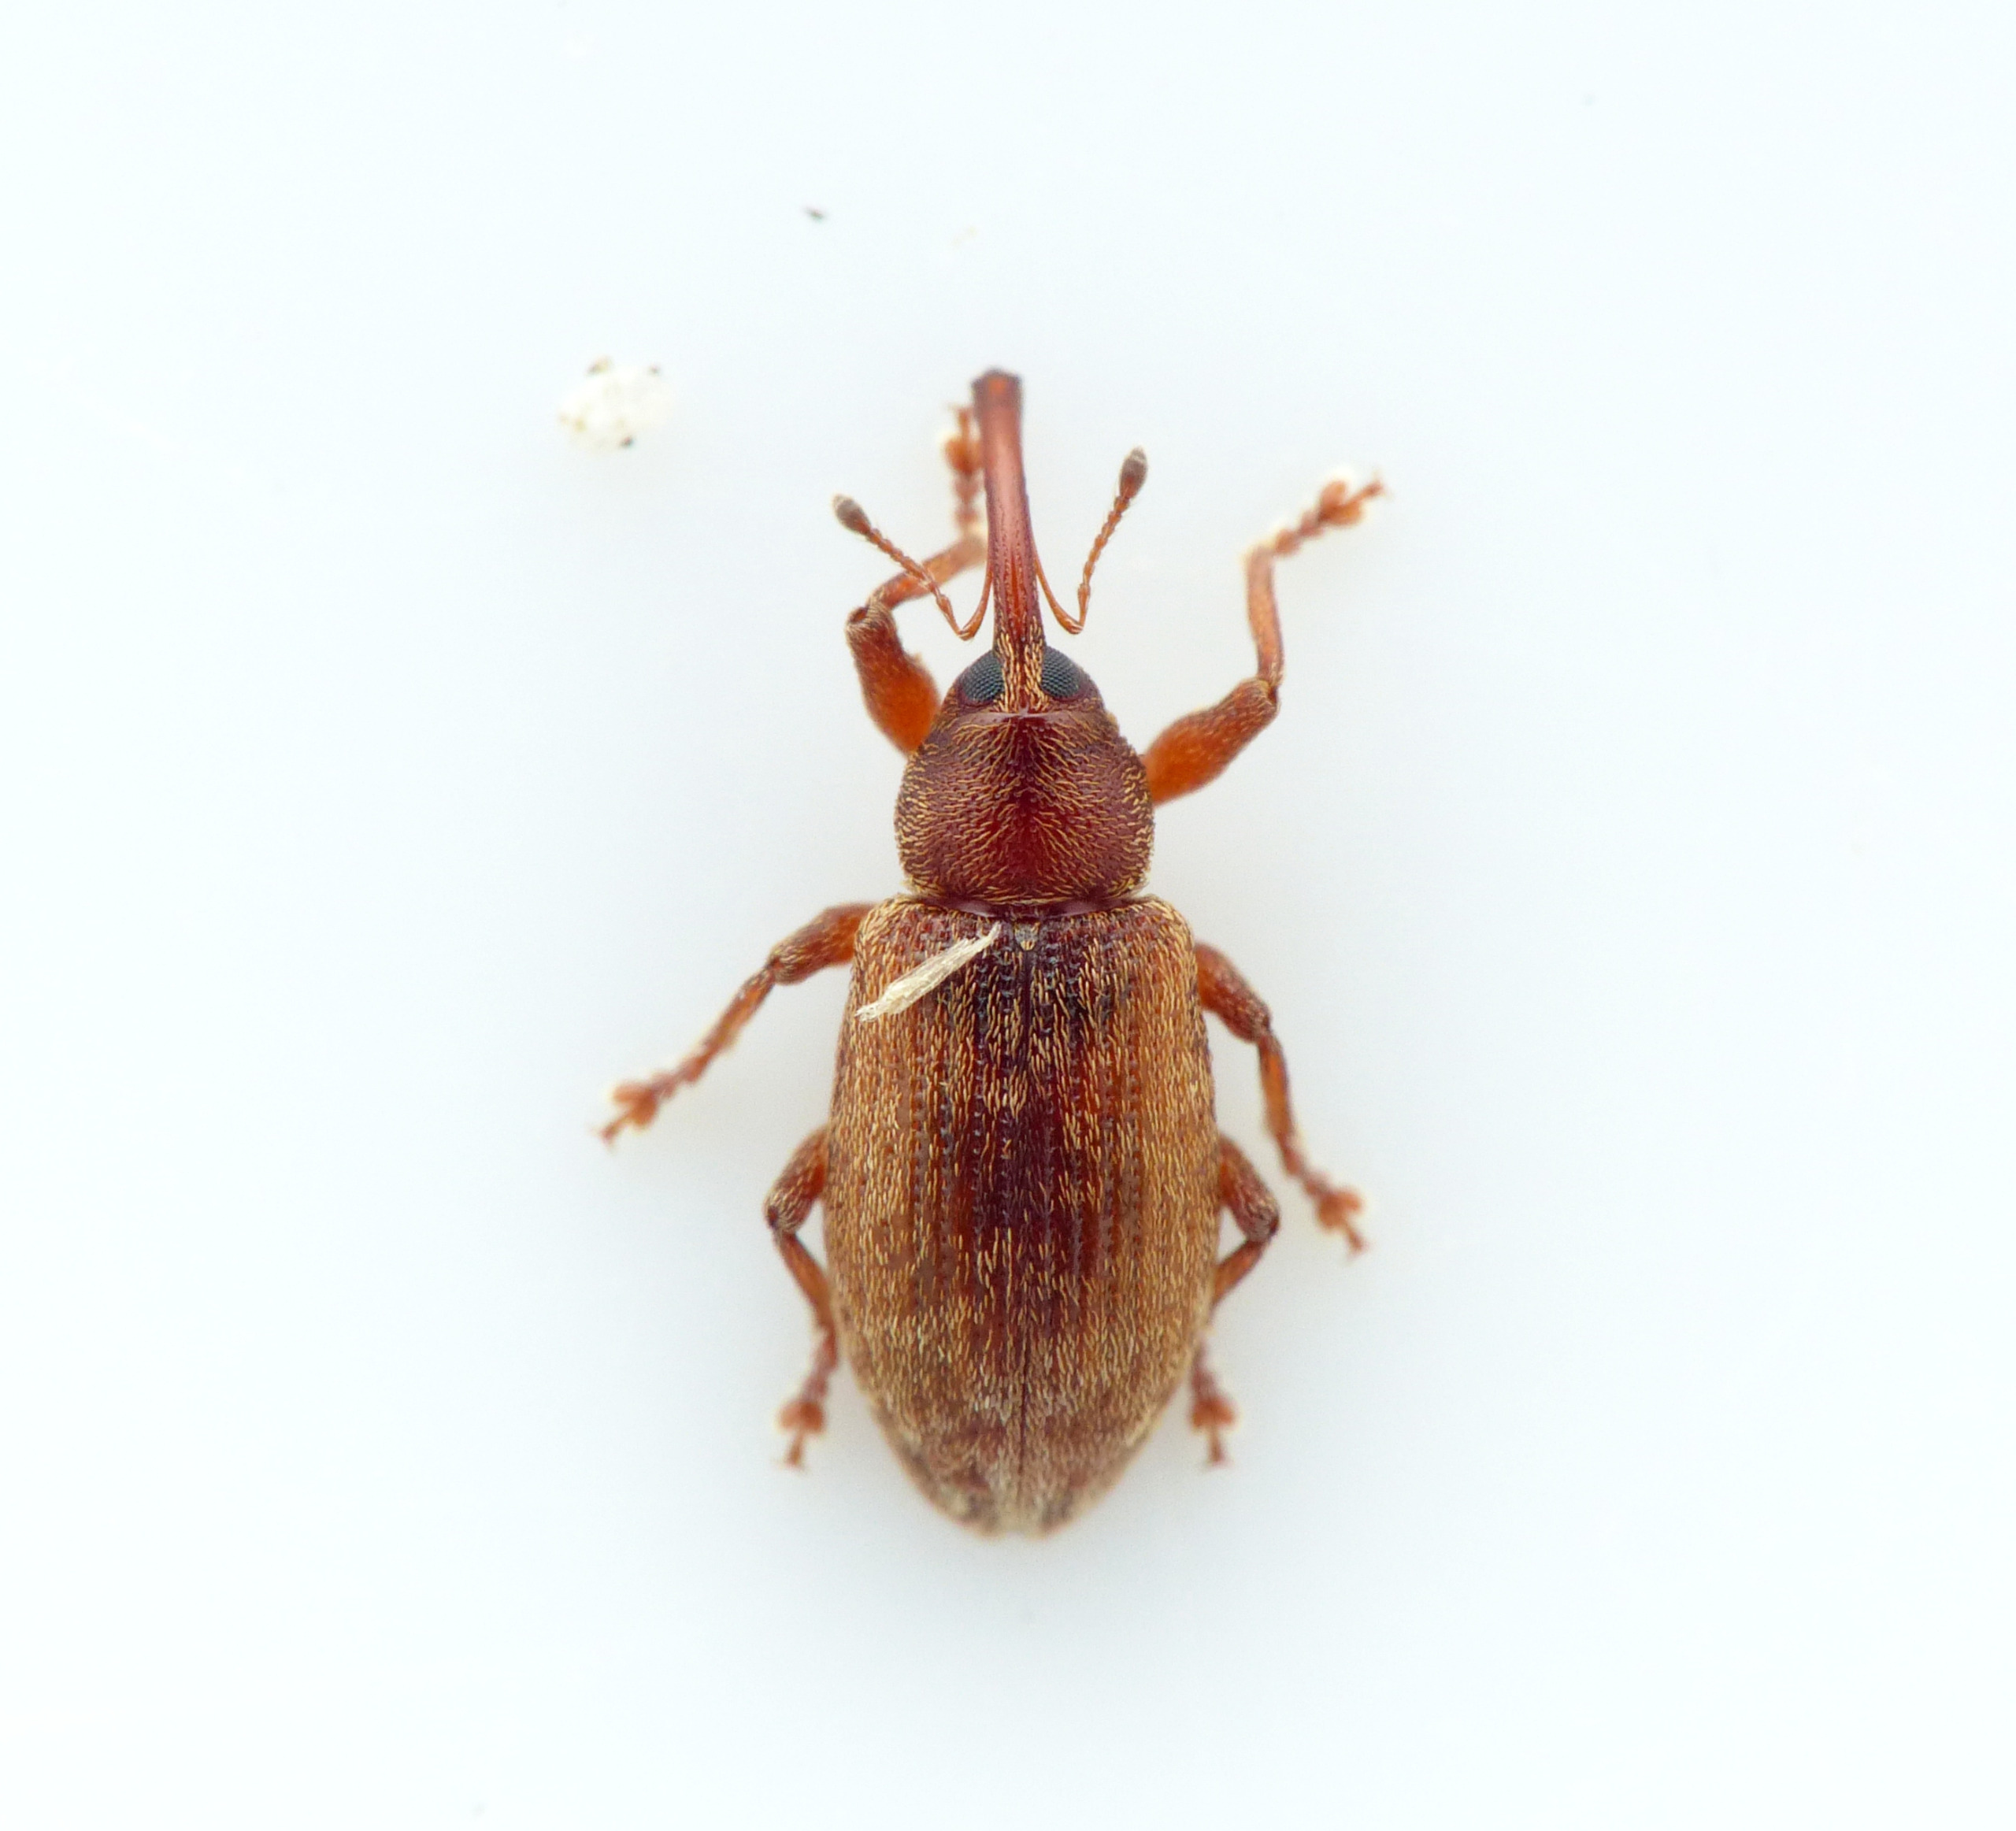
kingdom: Animalia
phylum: Arthropoda
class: Insecta
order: Coleoptera
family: Curculionidae
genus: Dorytomus
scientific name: Dorytomus rufatus
